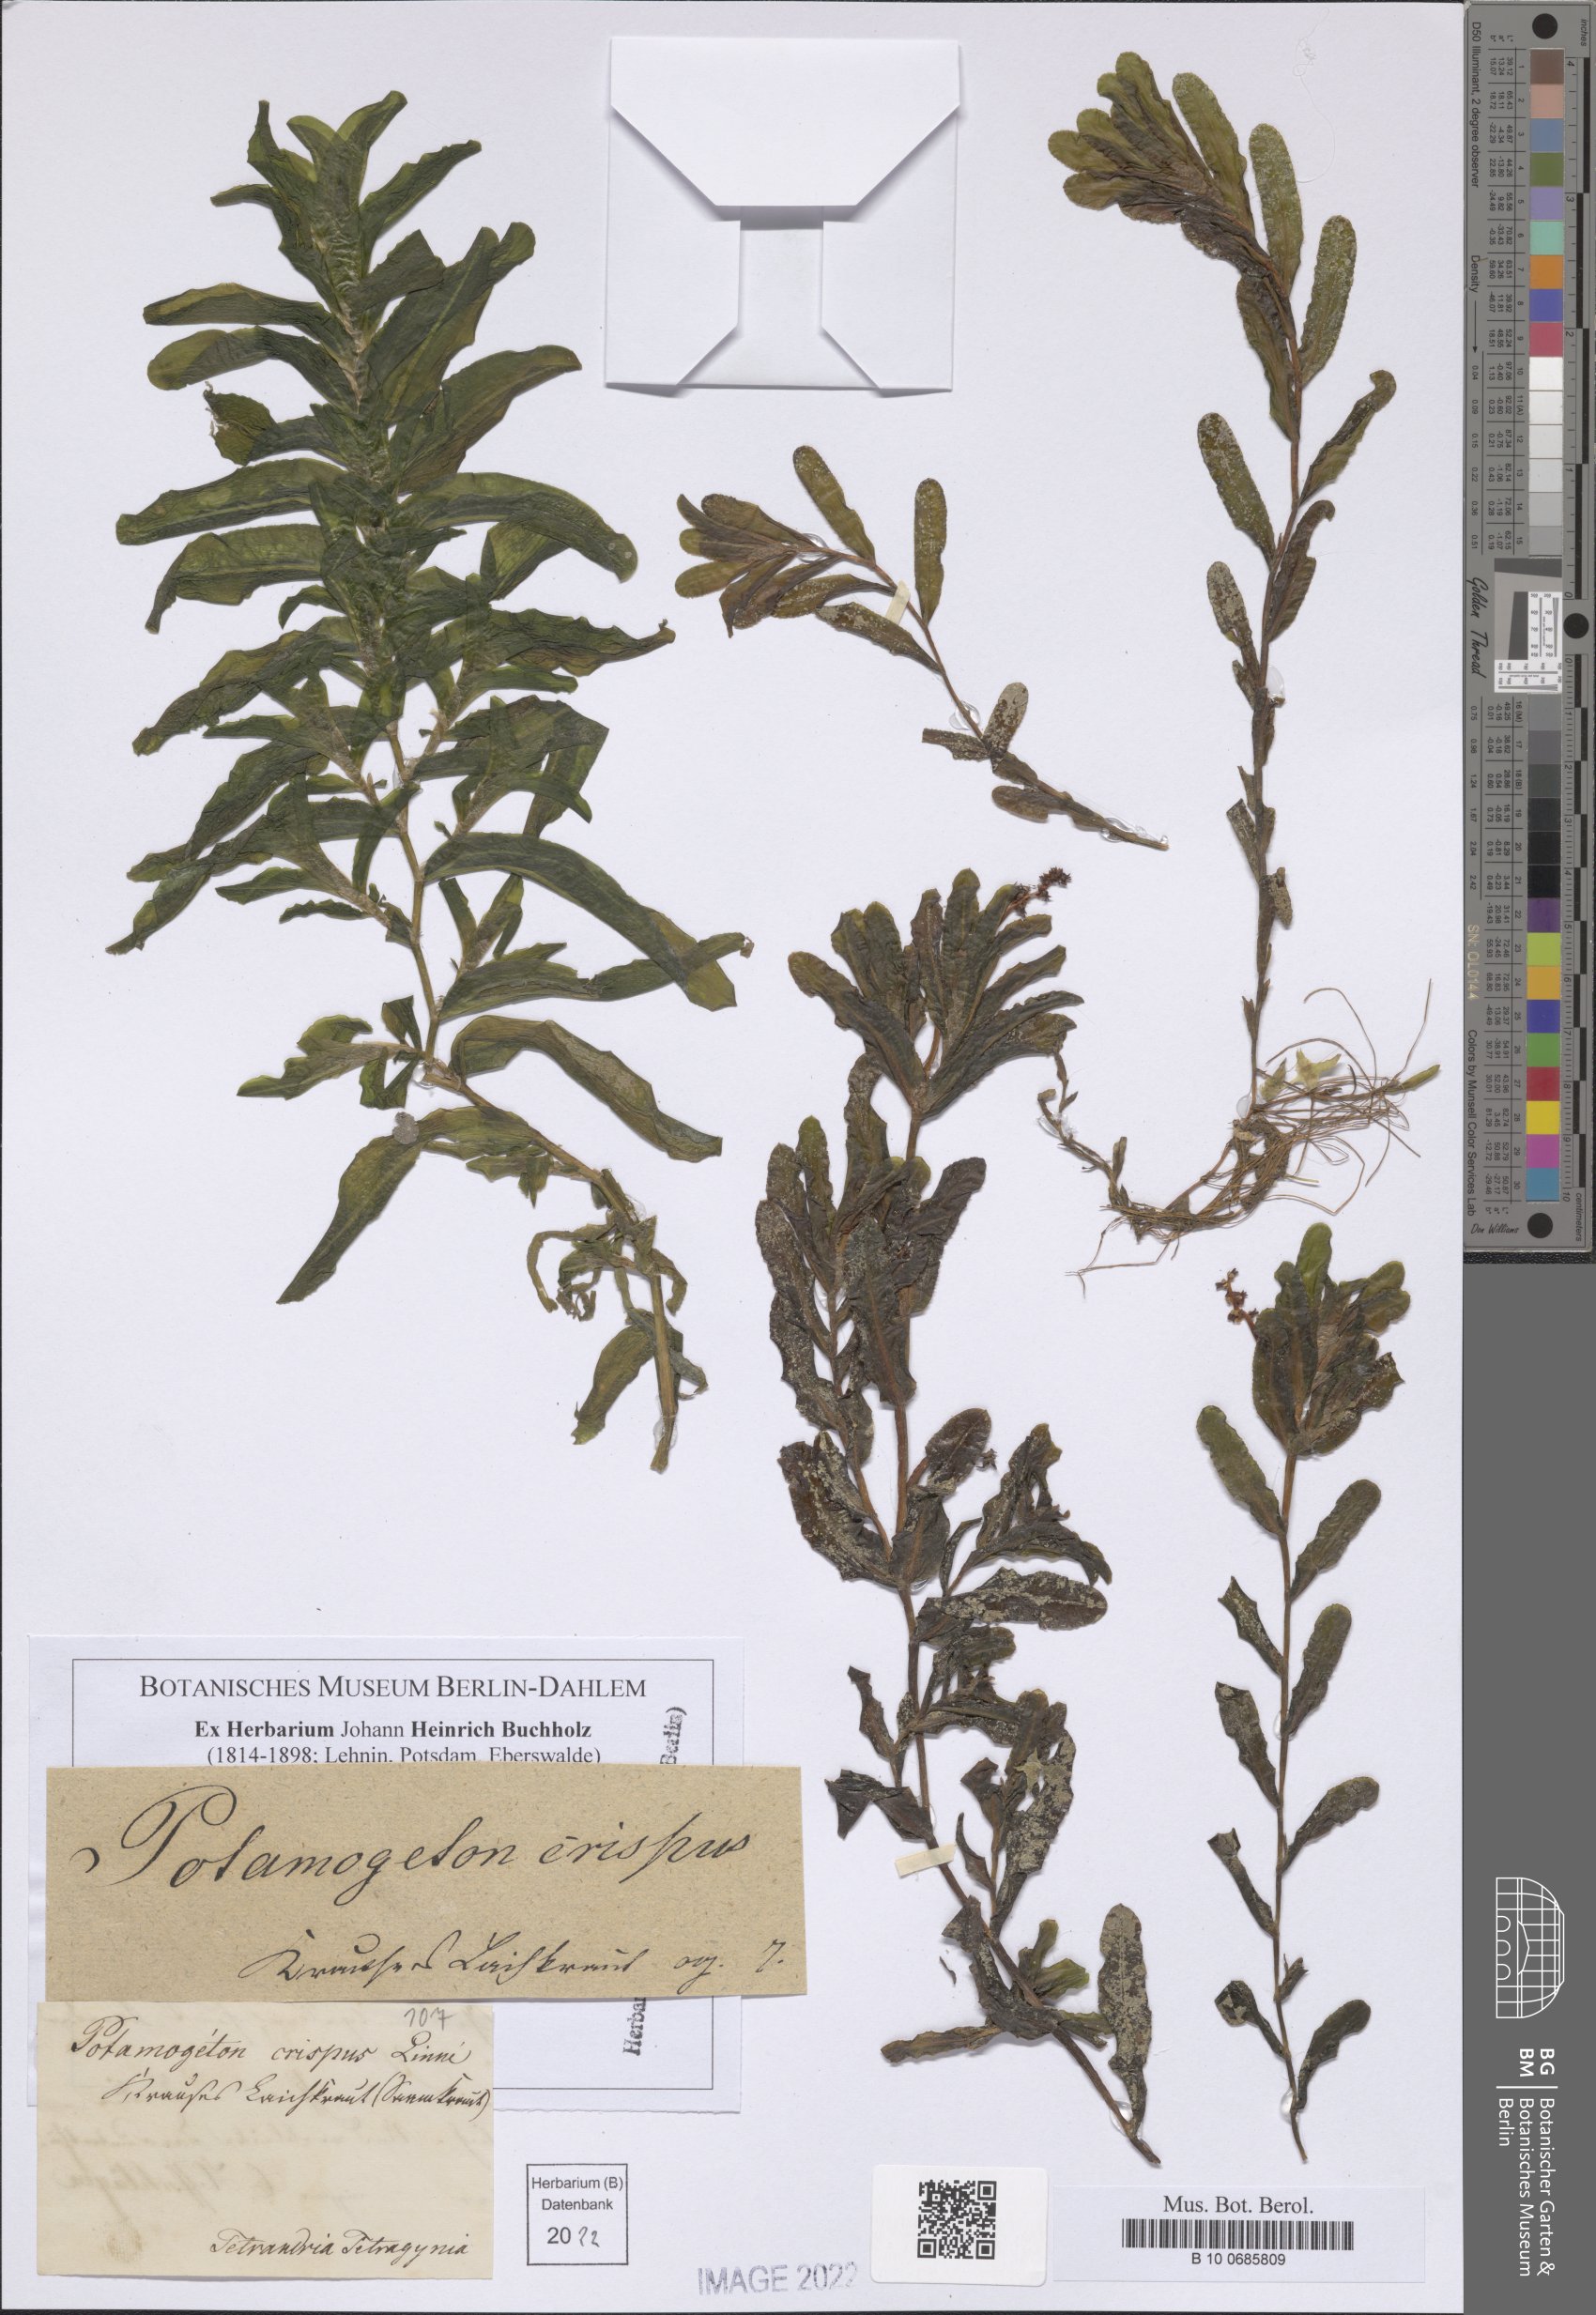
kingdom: Plantae
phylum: Tracheophyta
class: Liliopsida
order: Alismatales
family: Potamogetonaceae
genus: Potamogeton
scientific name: Potamogeton crispus
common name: Curled pondweed
